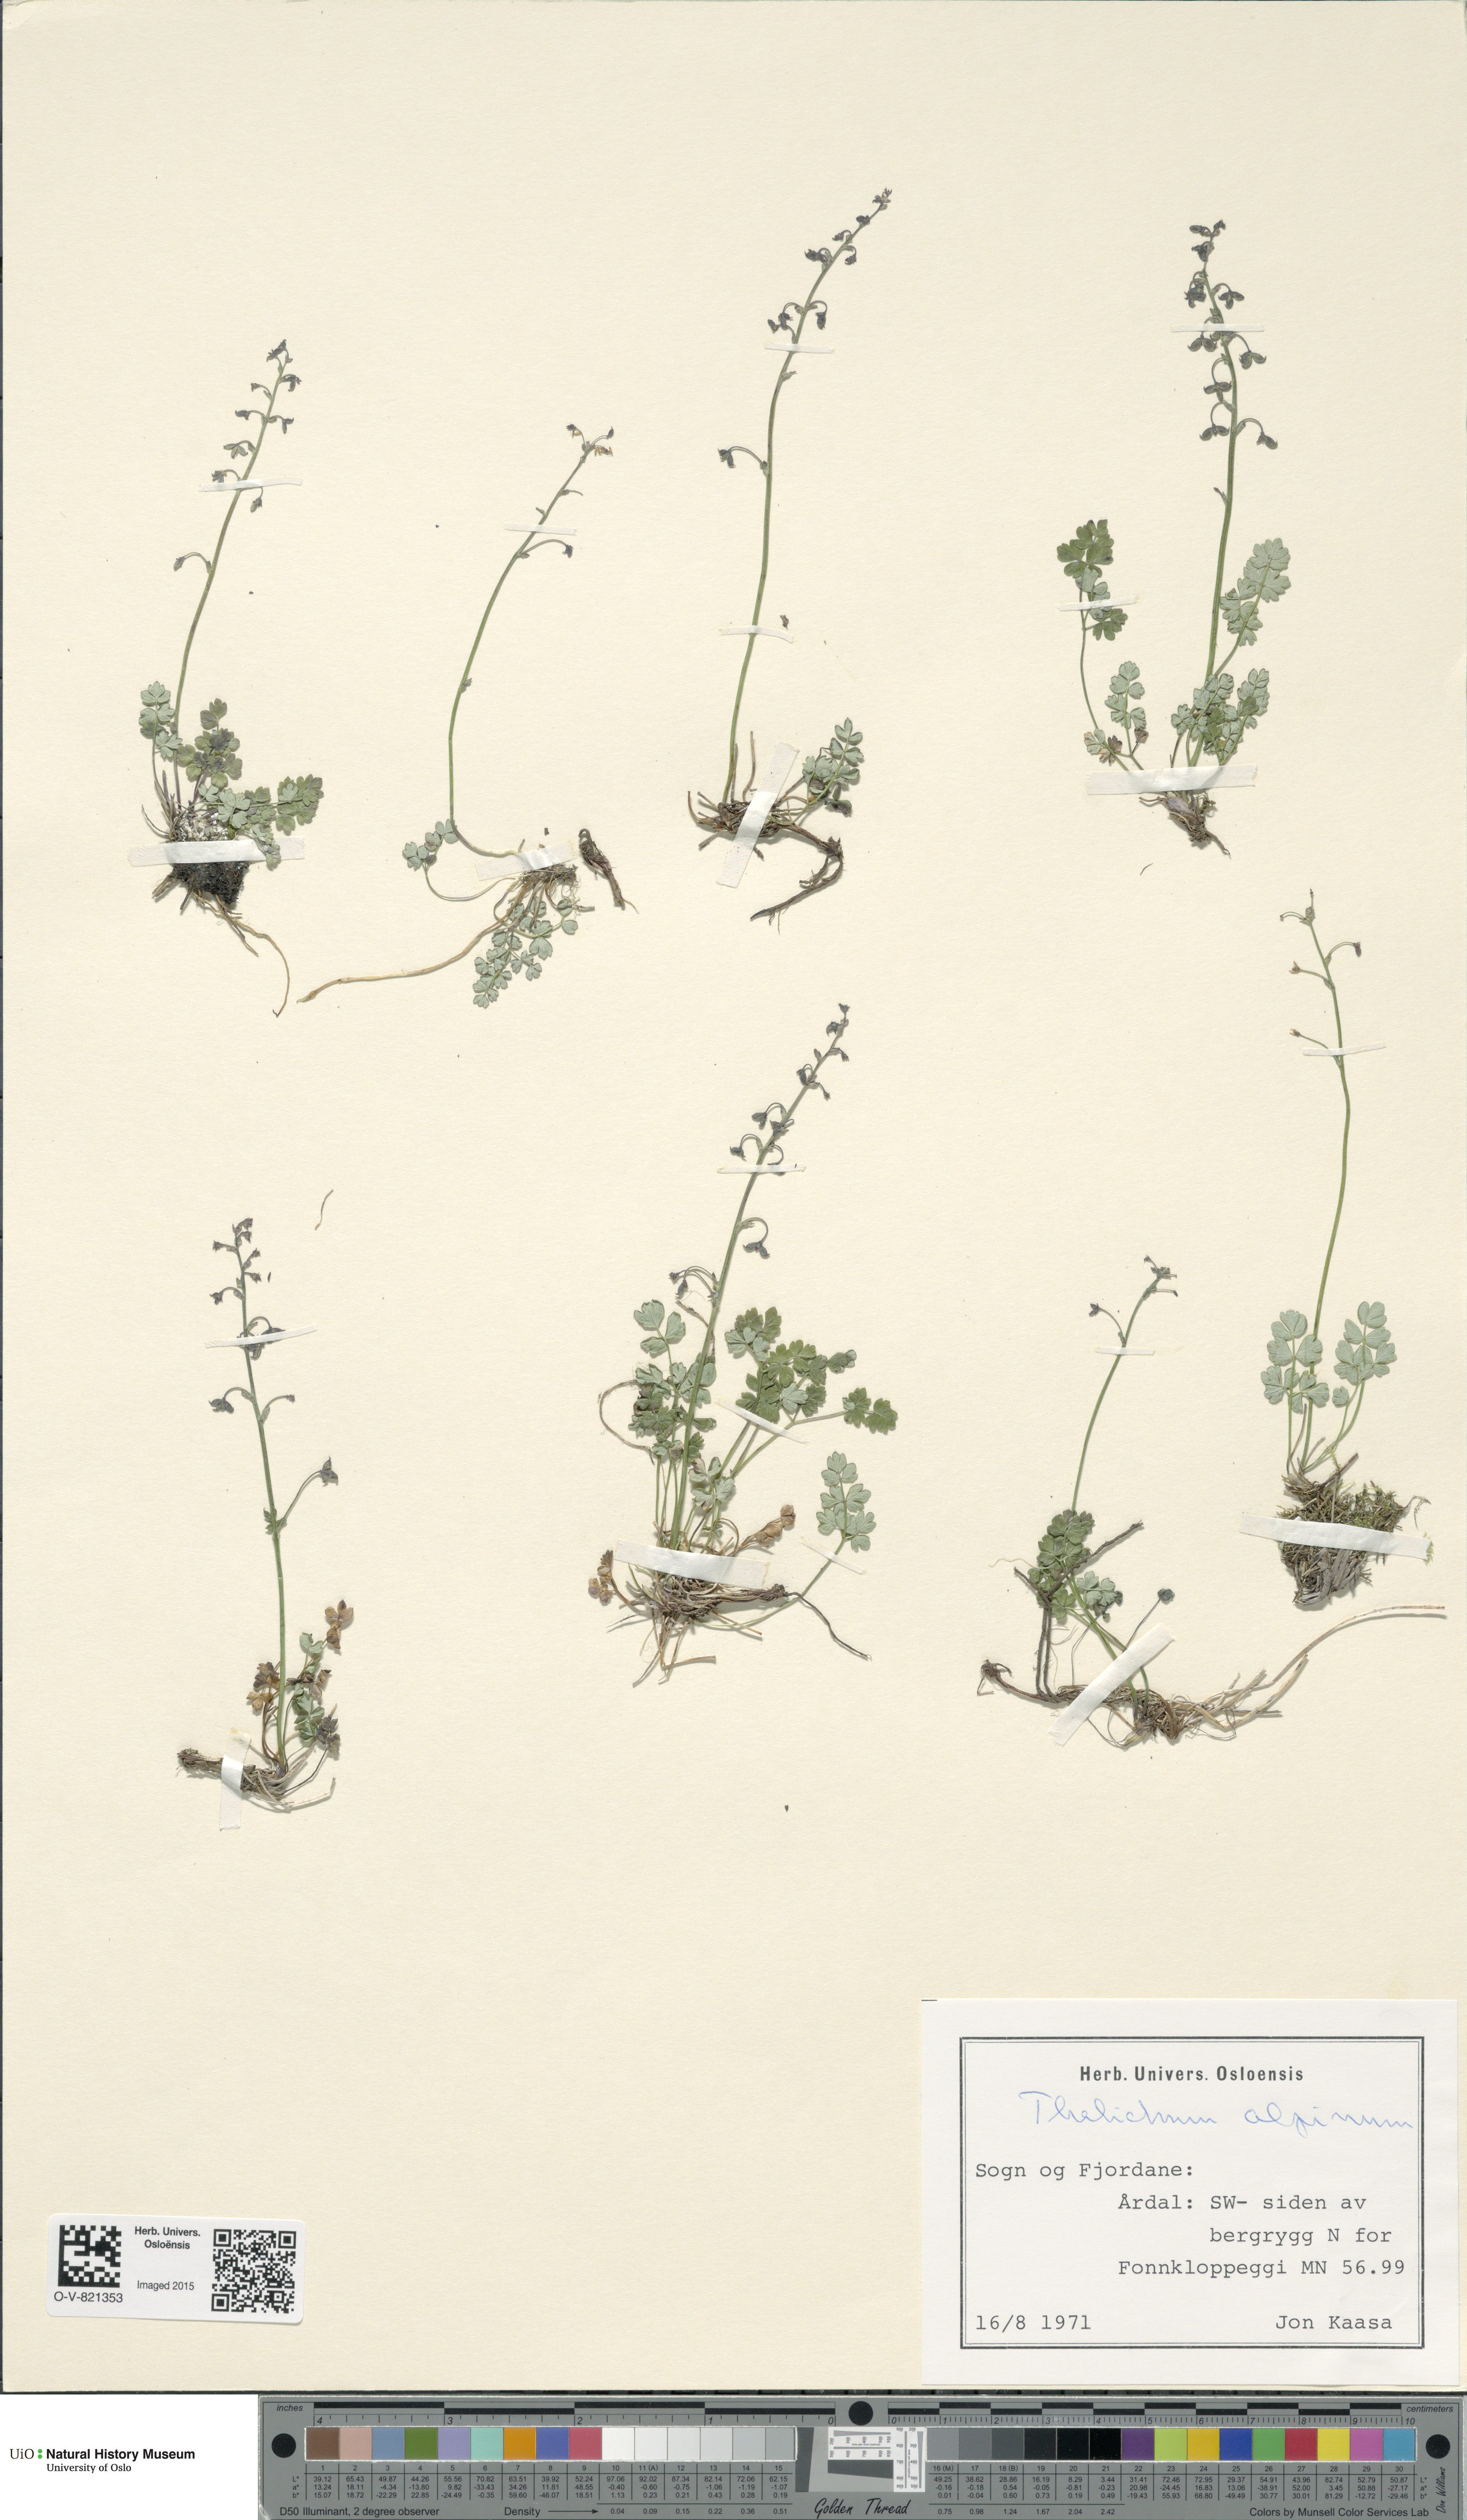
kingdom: Plantae
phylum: Tracheophyta
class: Magnoliopsida
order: Ranunculales
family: Ranunculaceae
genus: Thalictrum
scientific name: Thalictrum alpinum
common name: Alpine meadow-rue
